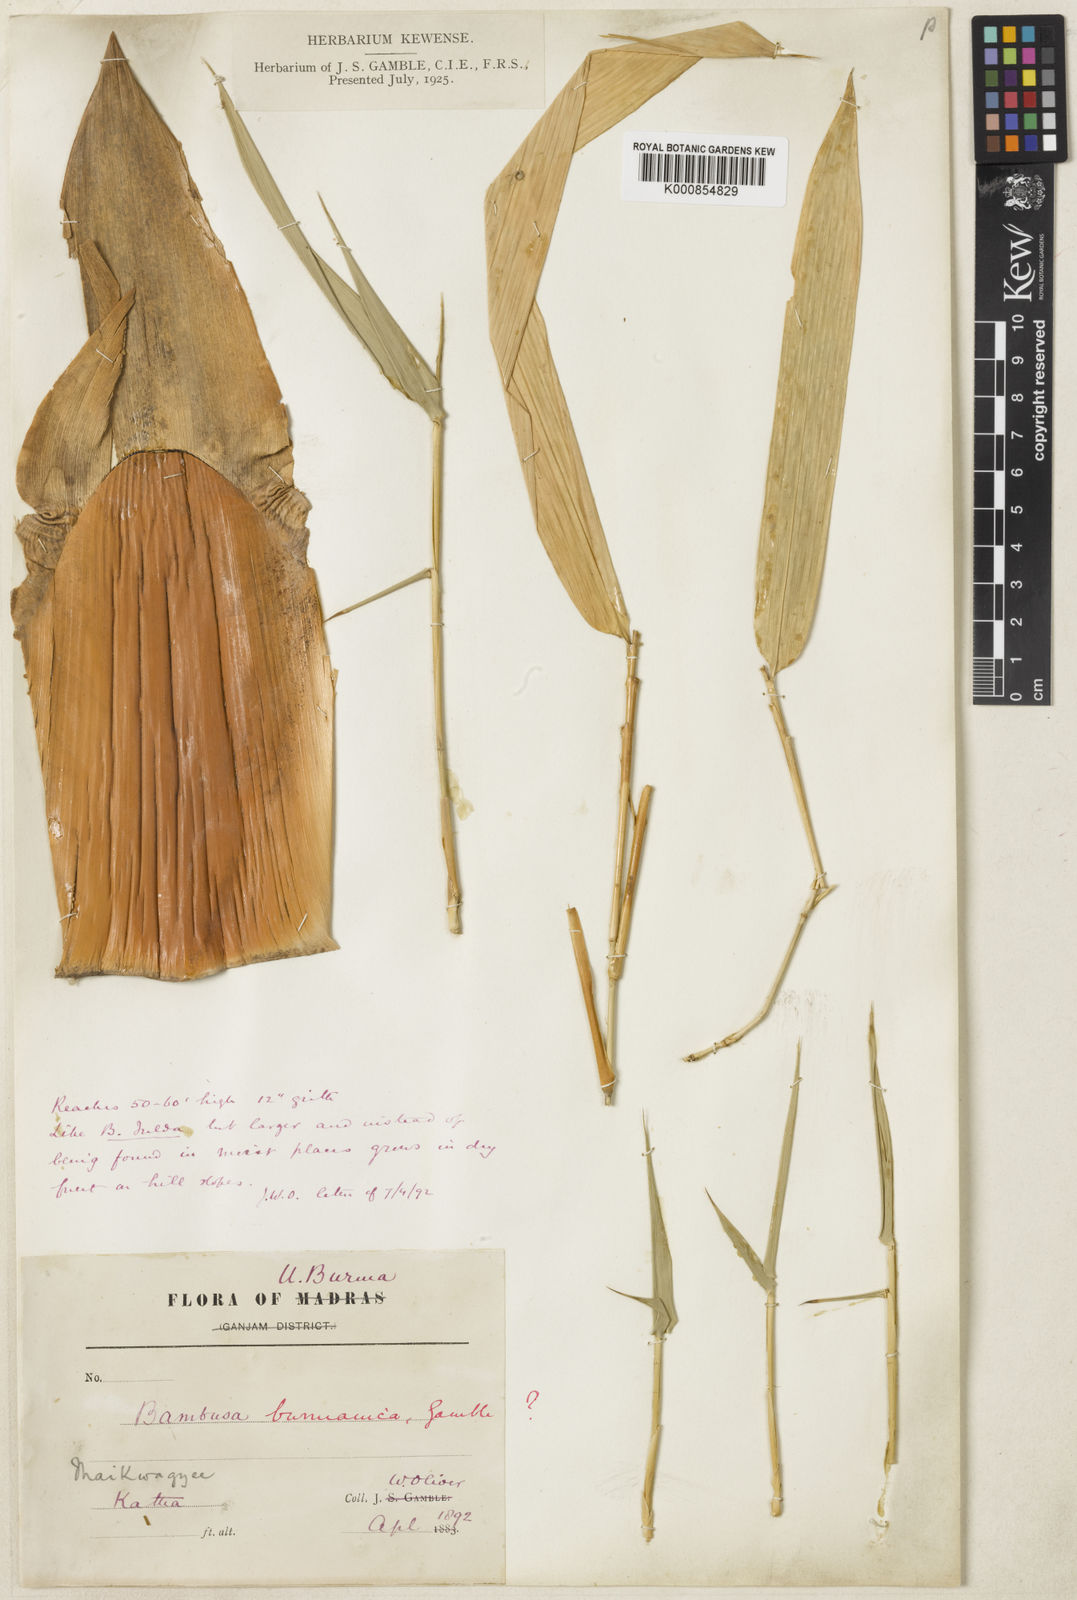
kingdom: Plantae
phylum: Tracheophyta
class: Liliopsida
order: Poales
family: Poaceae
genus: Bambusa
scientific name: Bambusa burmanica
